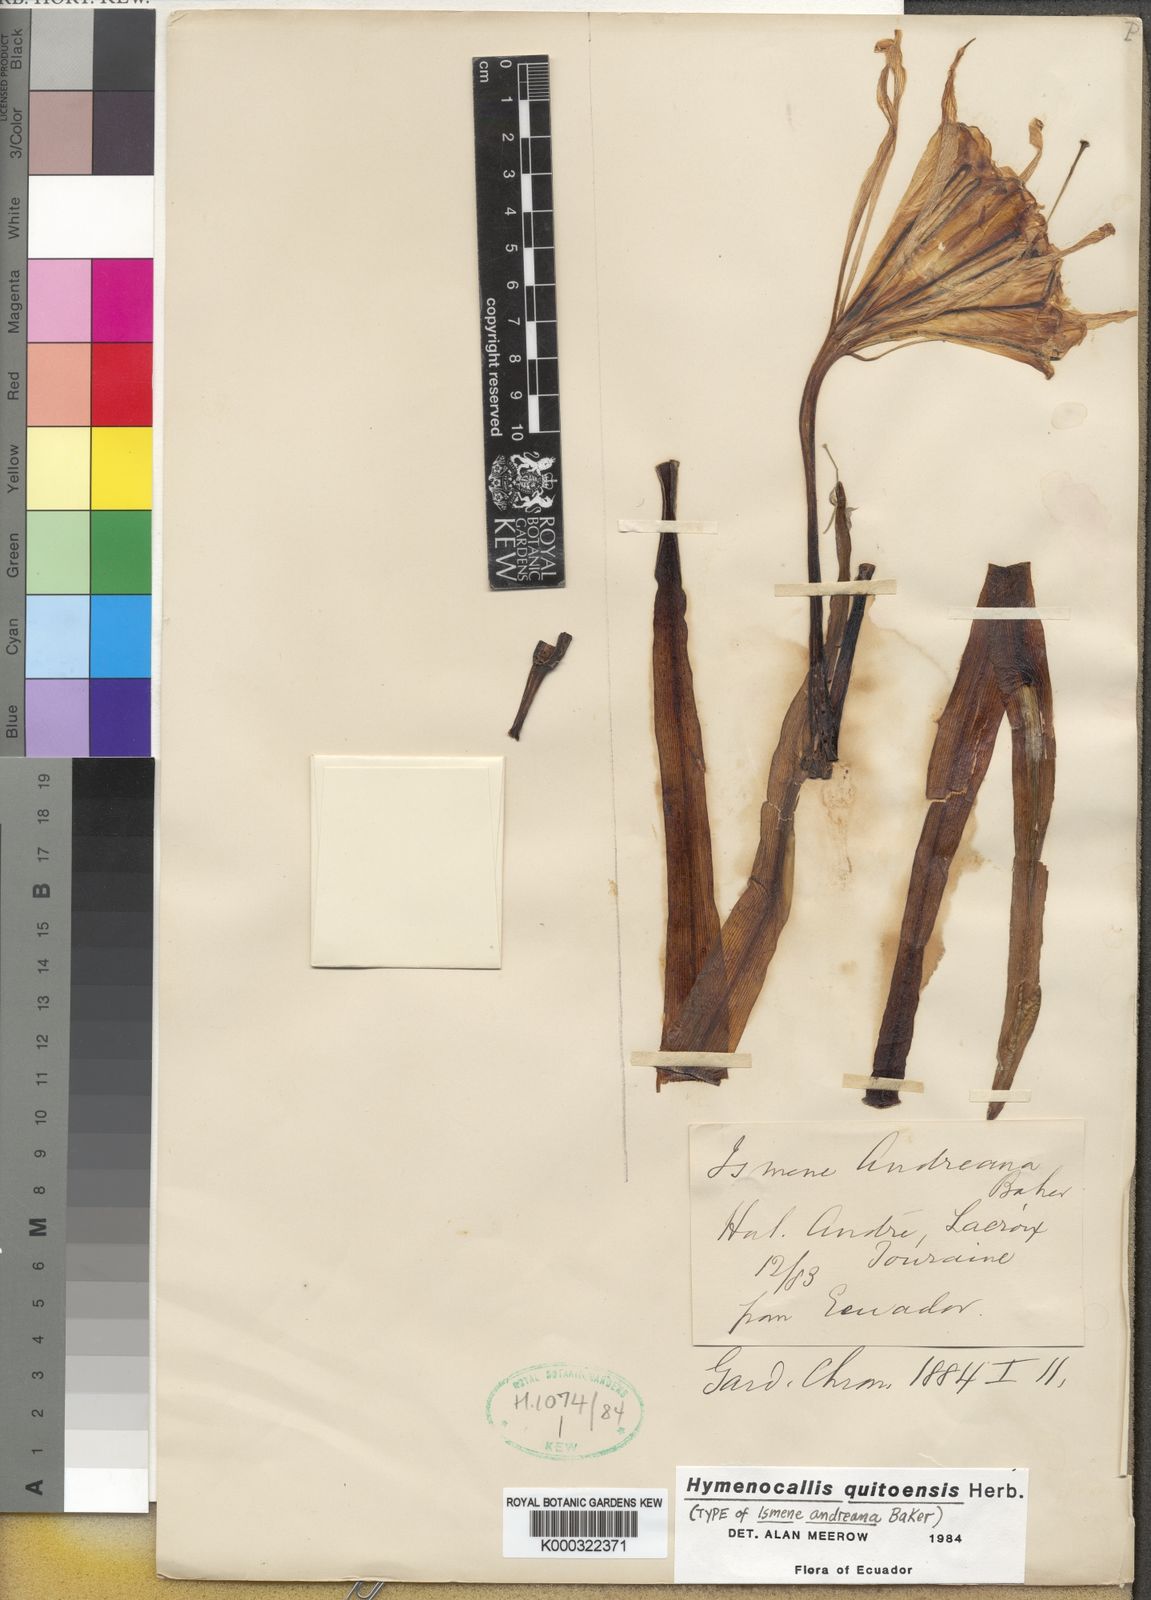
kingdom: Plantae
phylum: Tracheophyta
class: Liliopsida
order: Asparagales
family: Amaryllidaceae
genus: Leptochiton
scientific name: Leptochiton quitoensis
